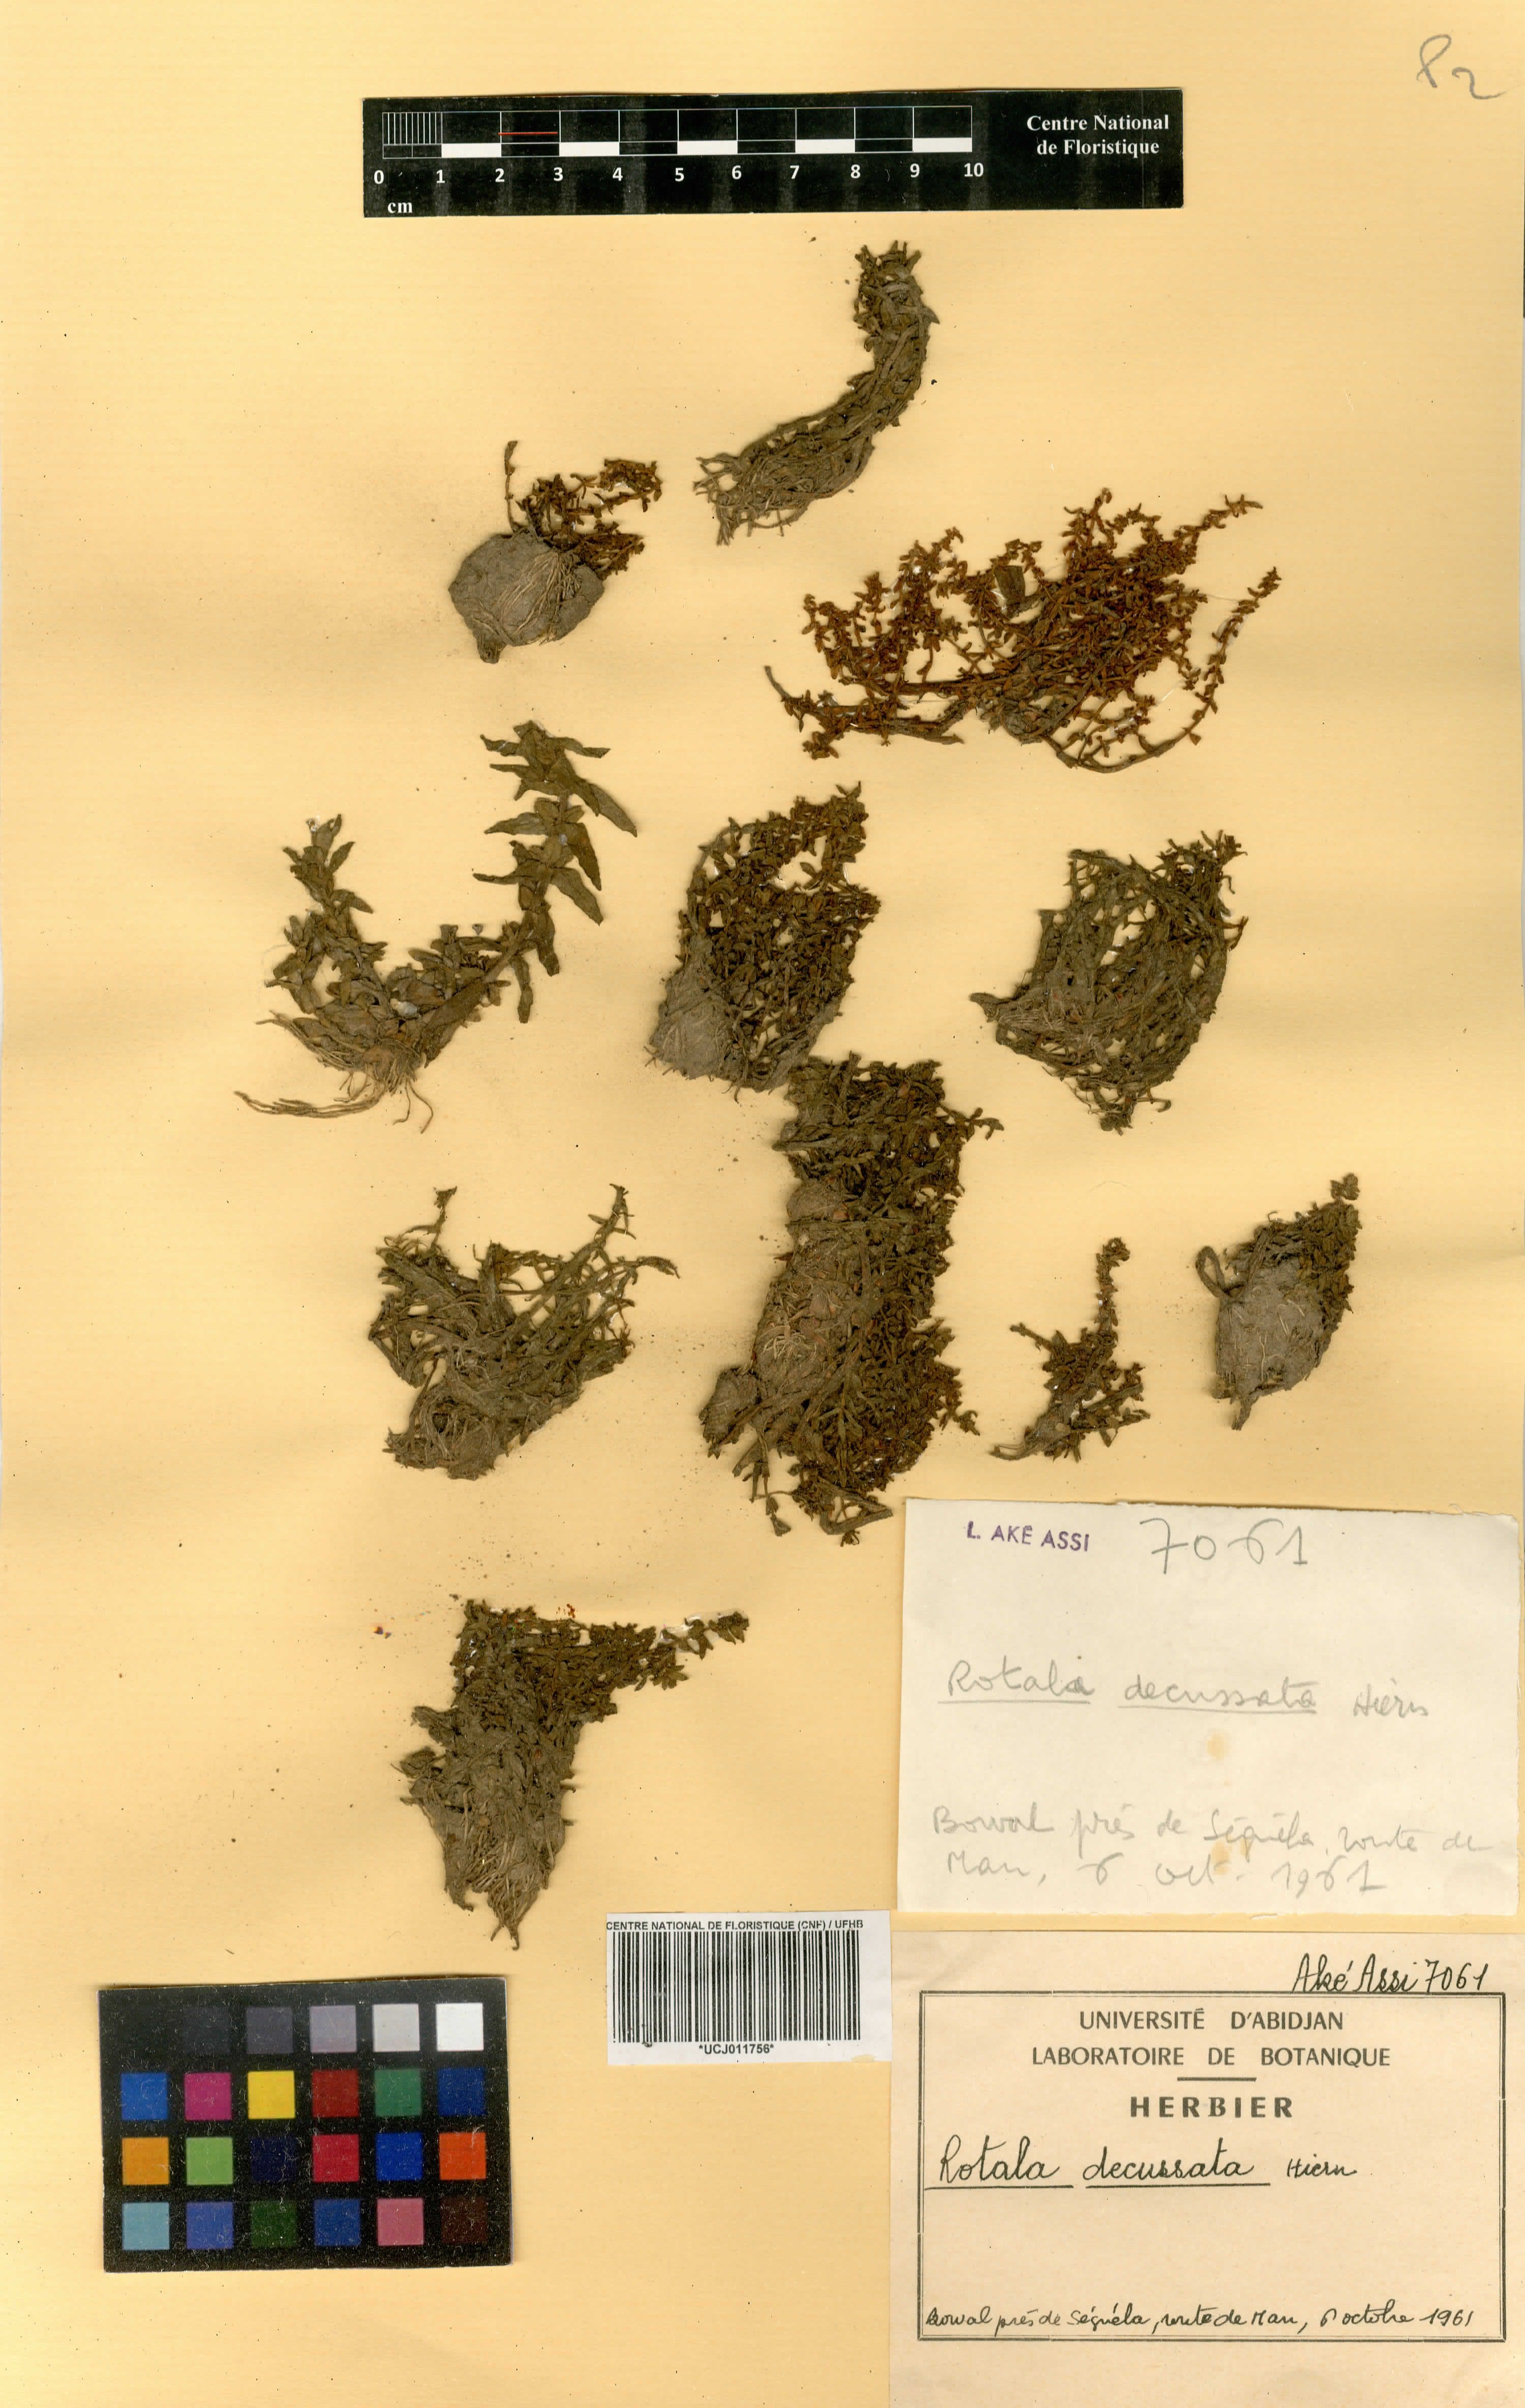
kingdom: Plantae
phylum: Tracheophyta
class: Magnoliopsida
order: Myrtales
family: Lythraceae
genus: Rotala
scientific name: Rotala welwitschii
